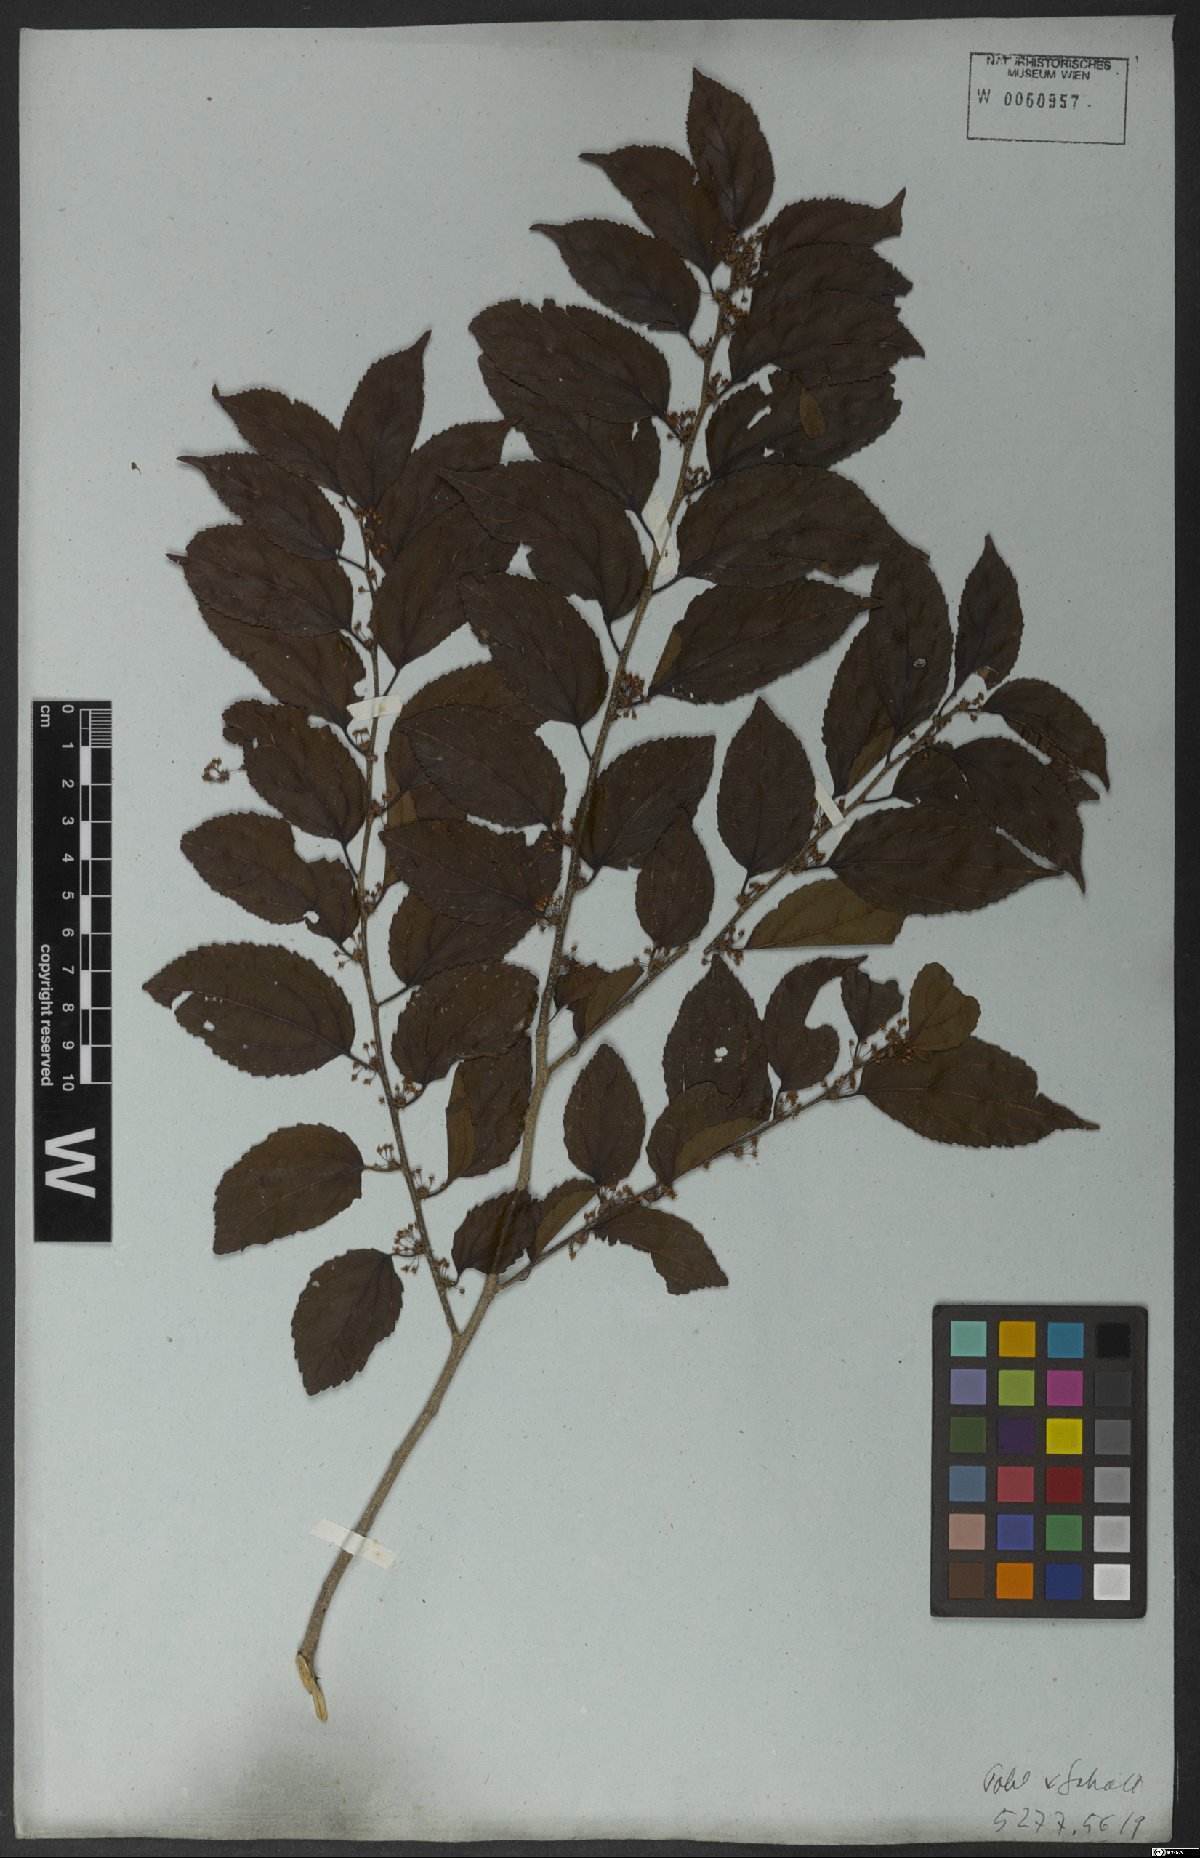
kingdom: Plantae
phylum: Tracheophyta
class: Magnoliopsida
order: Malpighiales
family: Salicaceae
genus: Casearia
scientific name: Casearia obliqua
